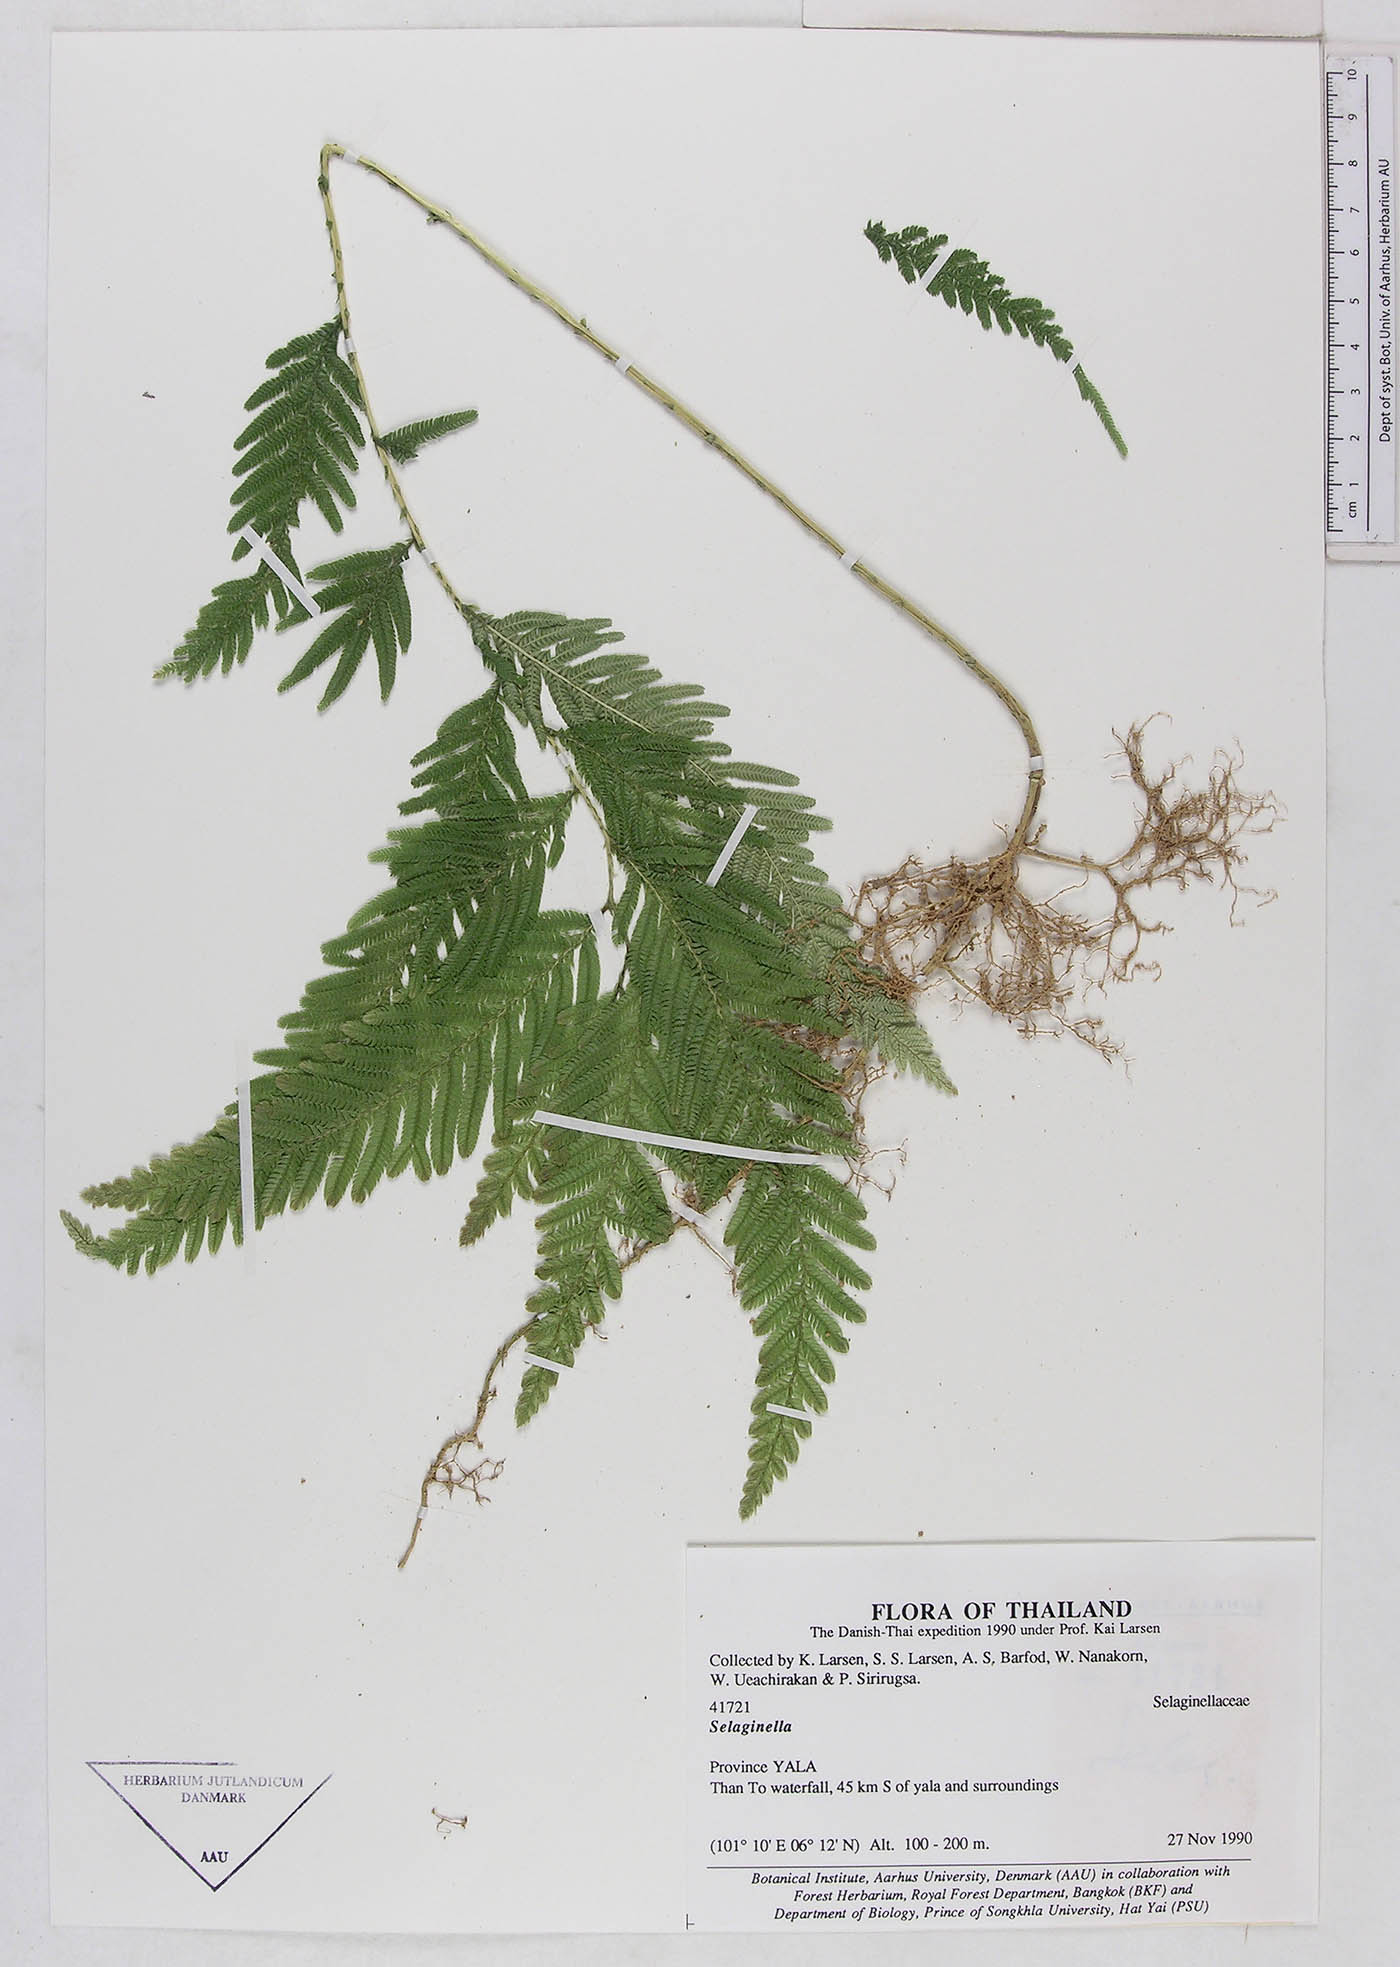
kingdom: Plantae
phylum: Tracheophyta
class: Lycopodiopsida
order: Selaginellales
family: Selaginellaceae
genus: Selaginella
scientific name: Selaginella
